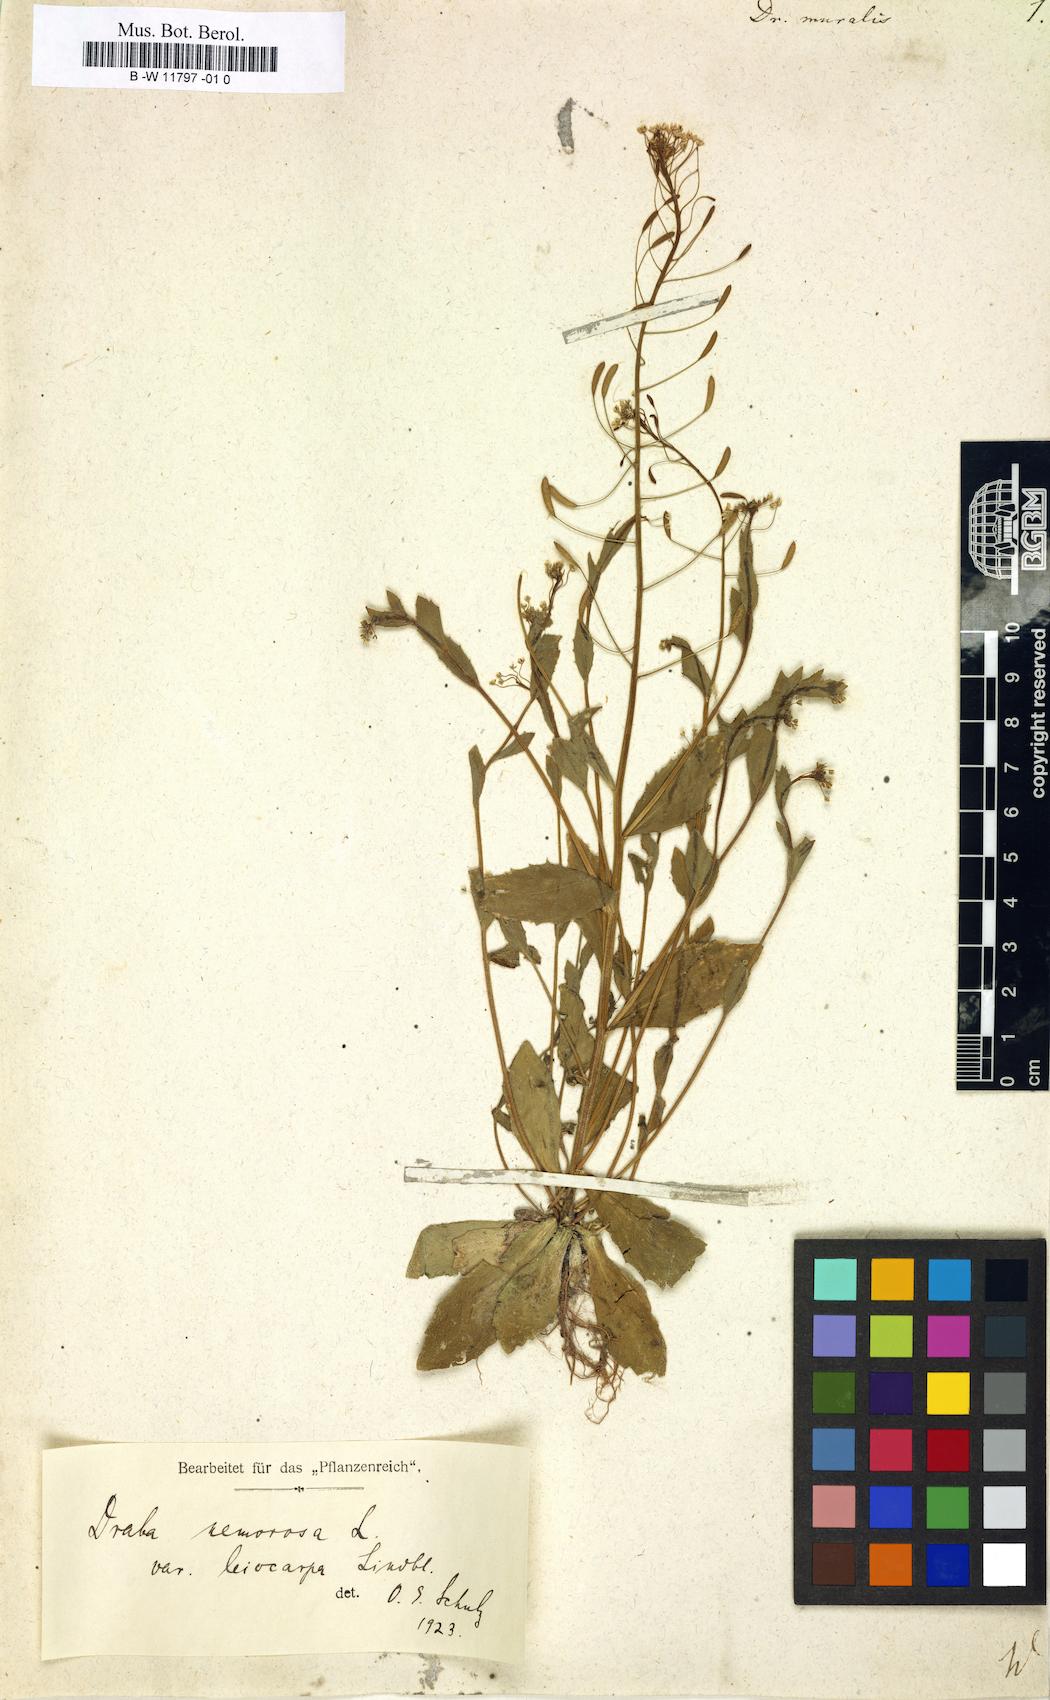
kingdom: Plantae
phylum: Tracheophyta
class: Magnoliopsida
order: Brassicales
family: Brassicaceae
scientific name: Brassicaceae
